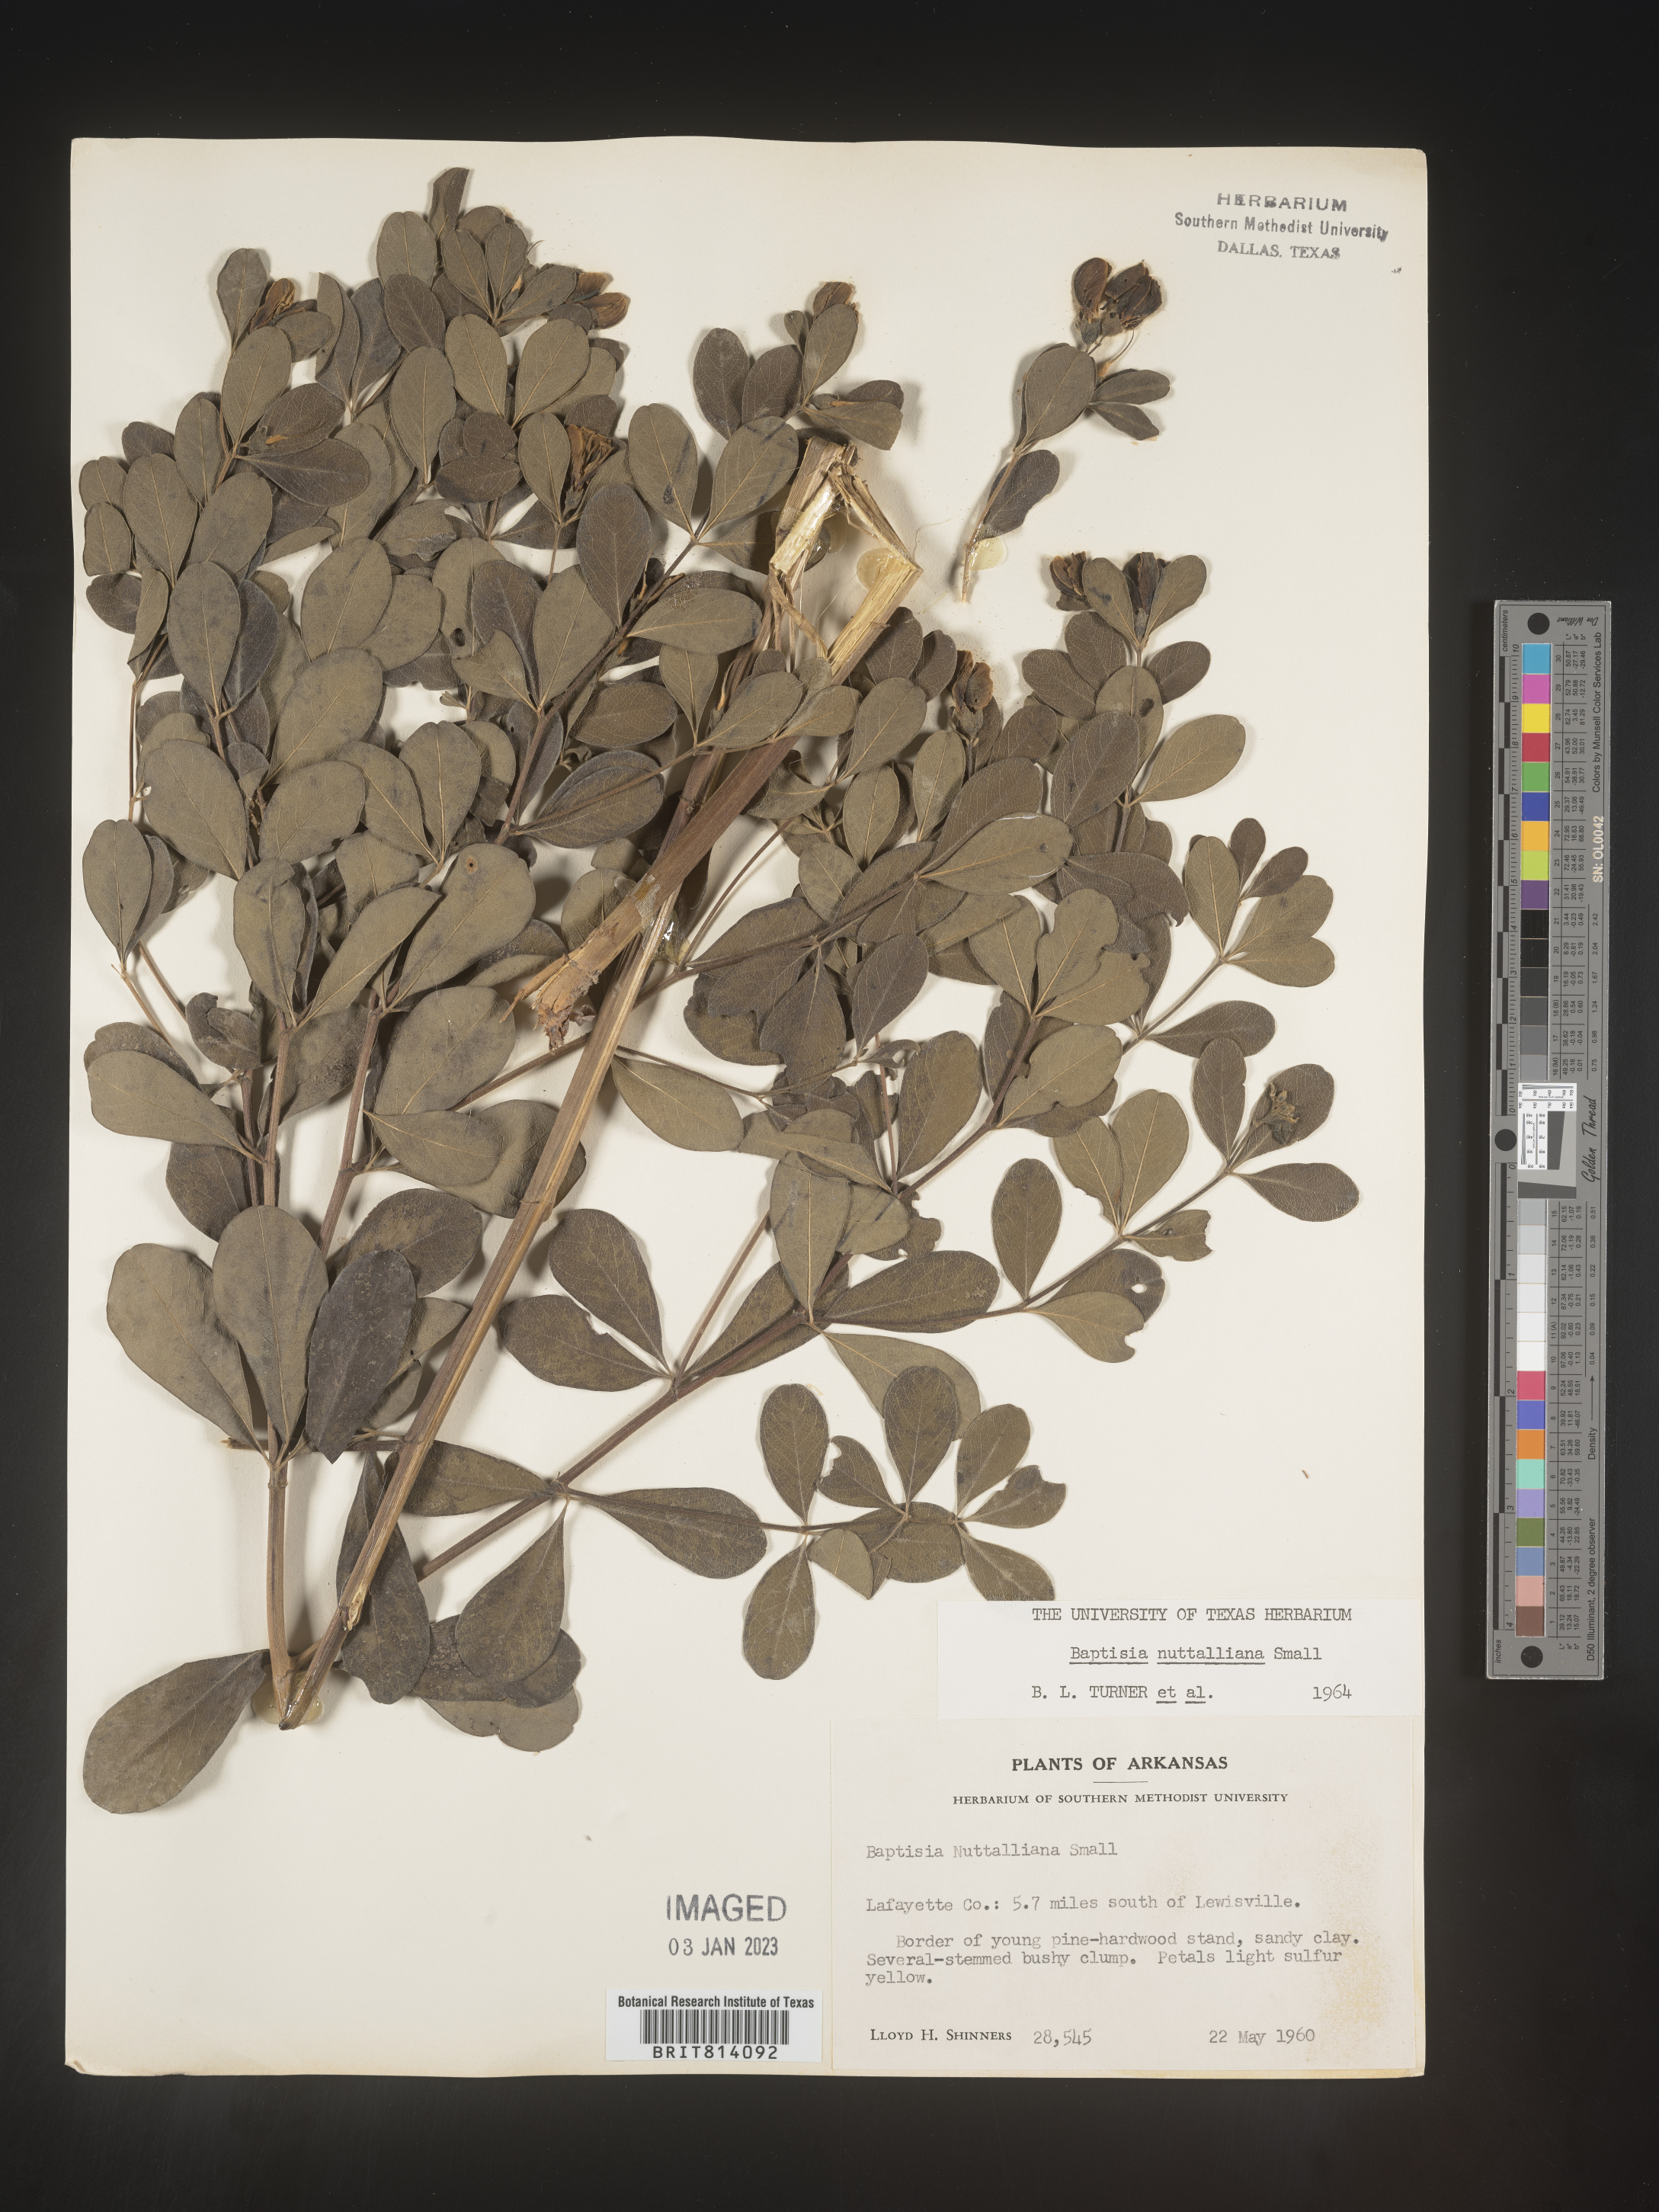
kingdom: Plantae
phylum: Tracheophyta
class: Magnoliopsida
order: Fabales
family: Fabaceae
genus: Baptisia
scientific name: Baptisia nuttalliana
